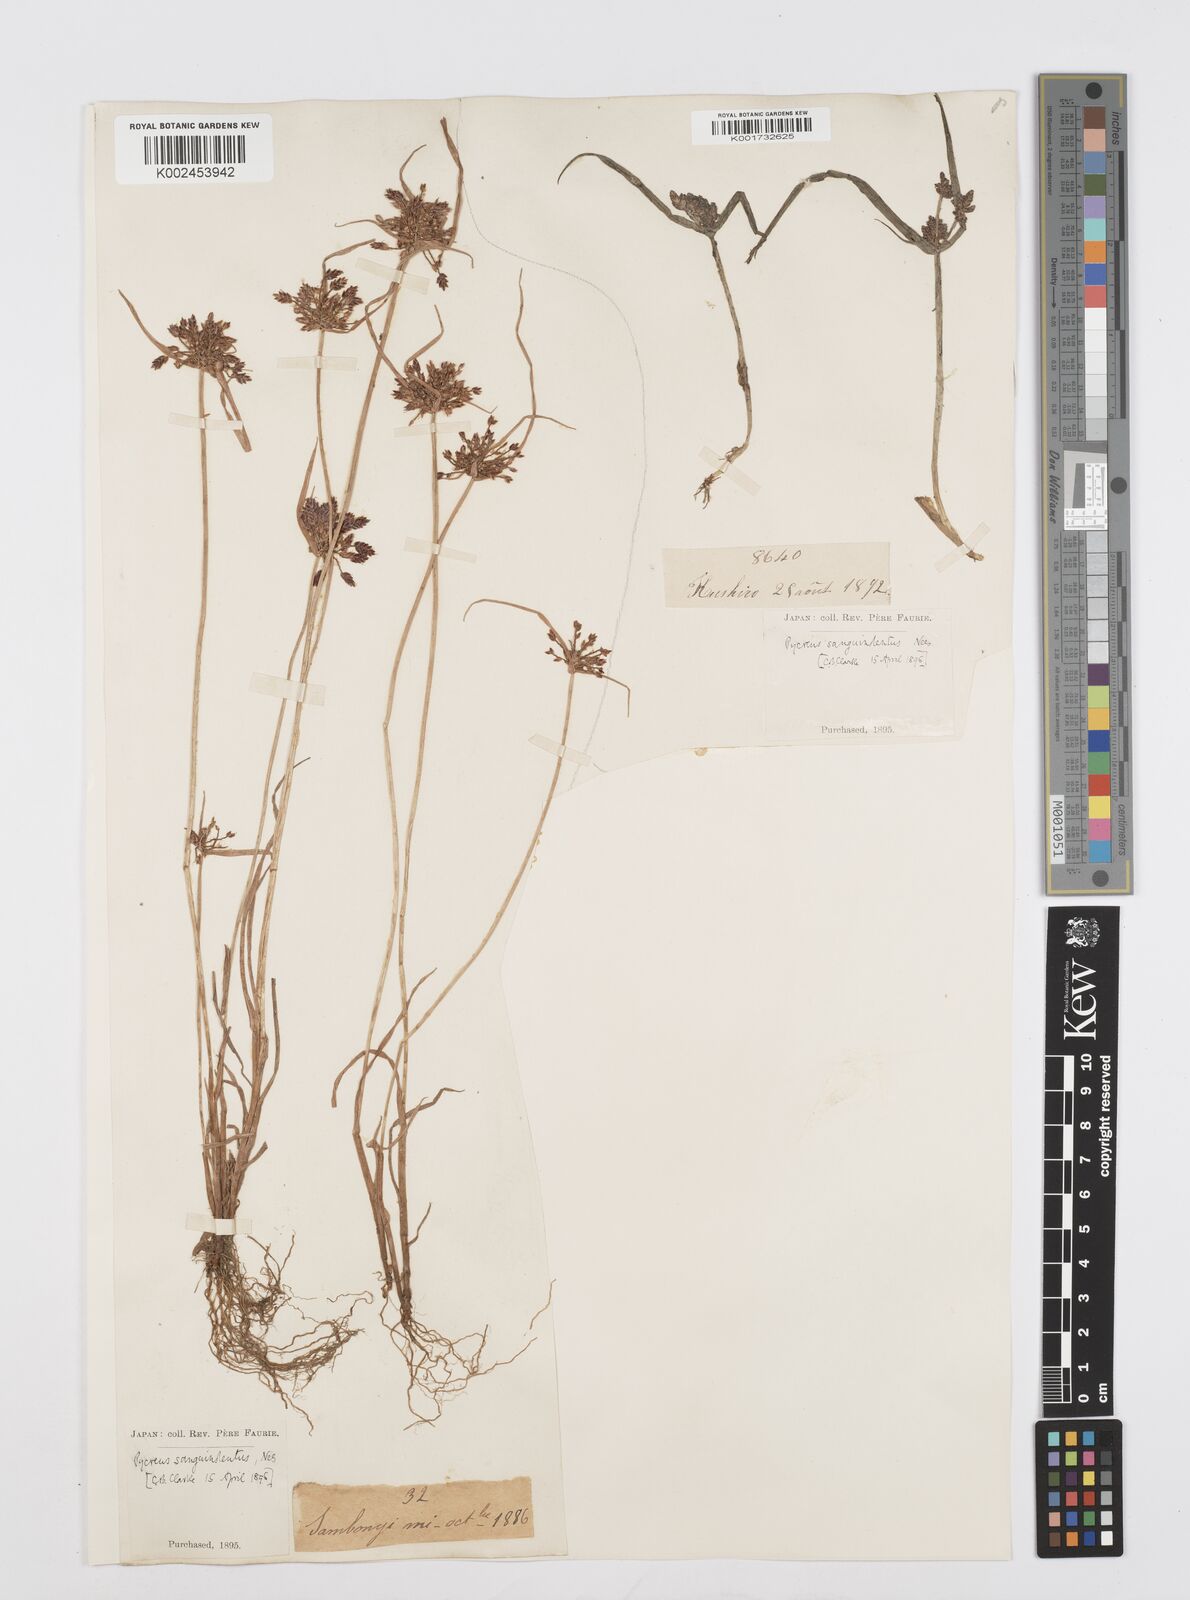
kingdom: Plantae
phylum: Tracheophyta
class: Liliopsida
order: Poales
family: Cyperaceae
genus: Cyperus
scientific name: Cyperus sanguinolentus
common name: Purpleglume flatsedge
